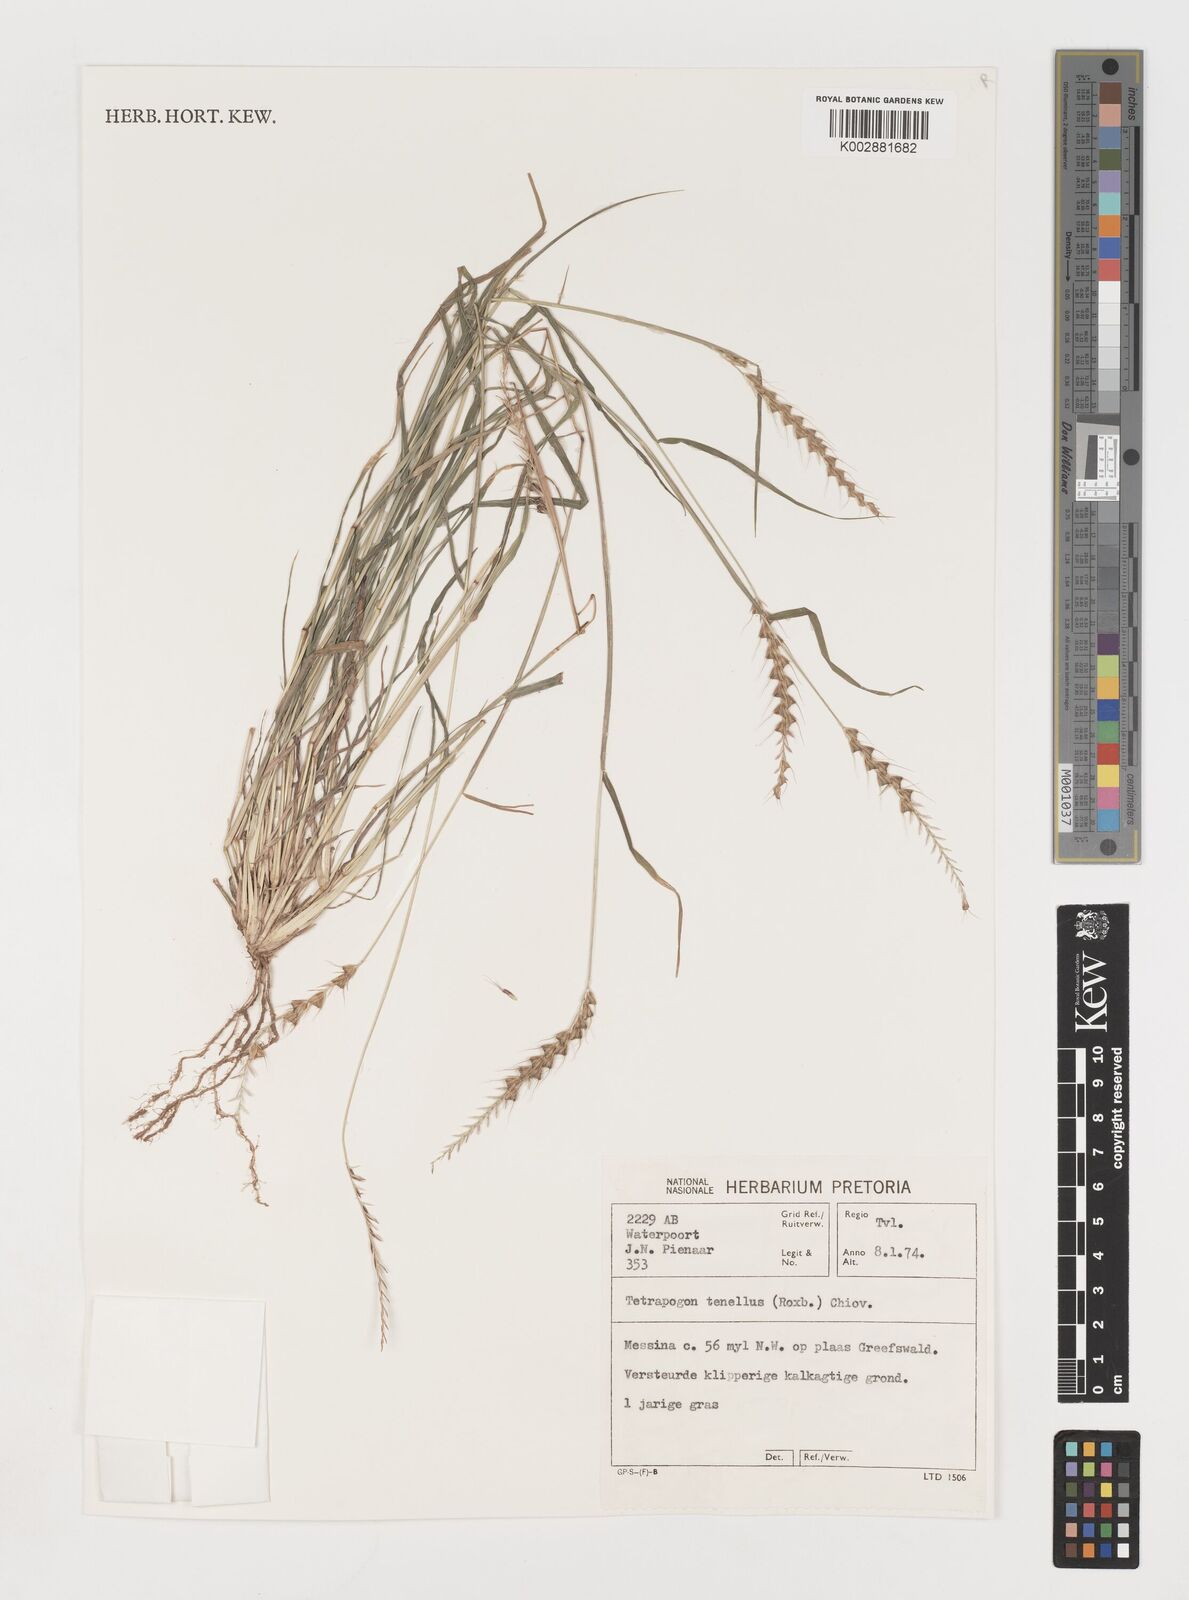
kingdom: Plantae
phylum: Tracheophyta
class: Liliopsida
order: Poales
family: Poaceae
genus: Tetrapogon
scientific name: Tetrapogon tenellus
